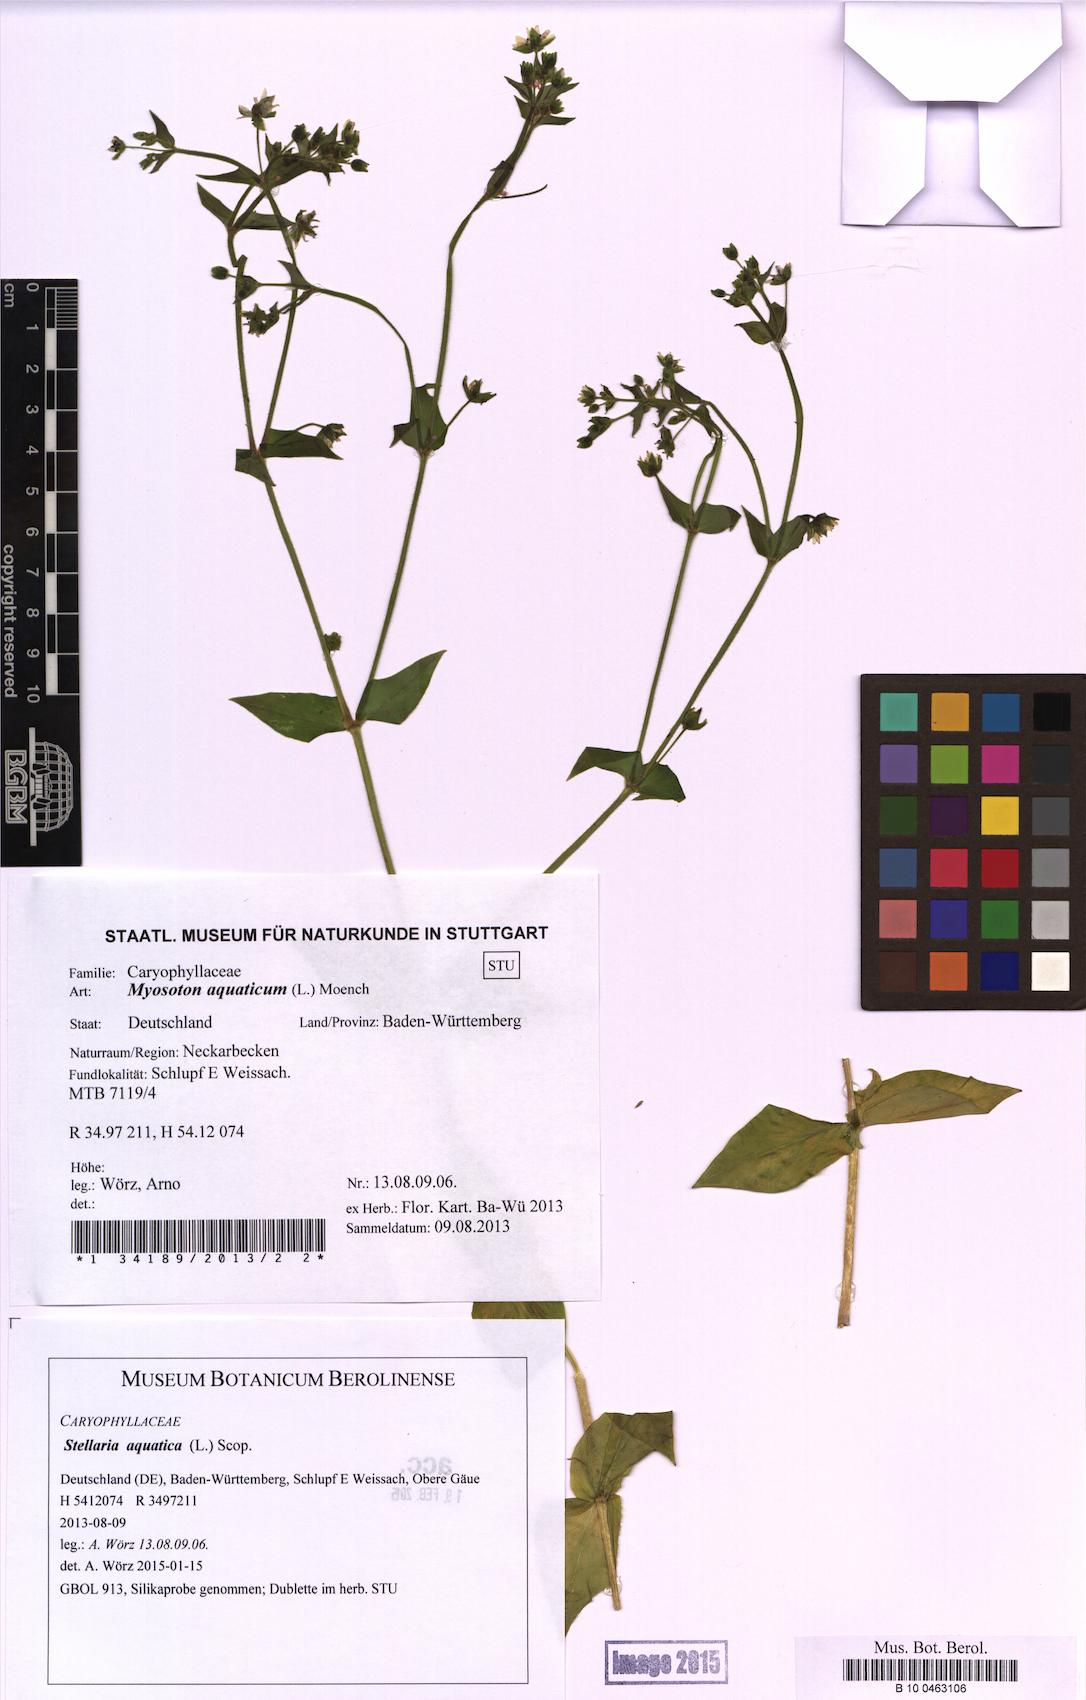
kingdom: Plantae
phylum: Tracheophyta
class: Magnoliopsida
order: Caryophyllales
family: Caryophyllaceae
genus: Stellaria
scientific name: Stellaria aquatica
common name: Water chickweed
